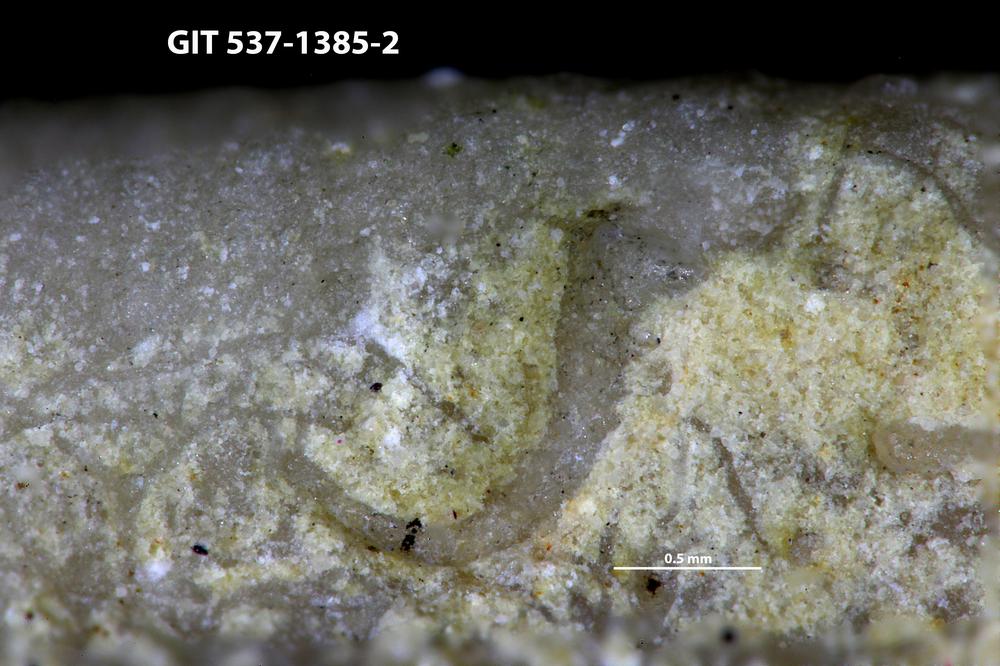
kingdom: Animalia
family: Cornulitidae
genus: Cornulites
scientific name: Cornulites
